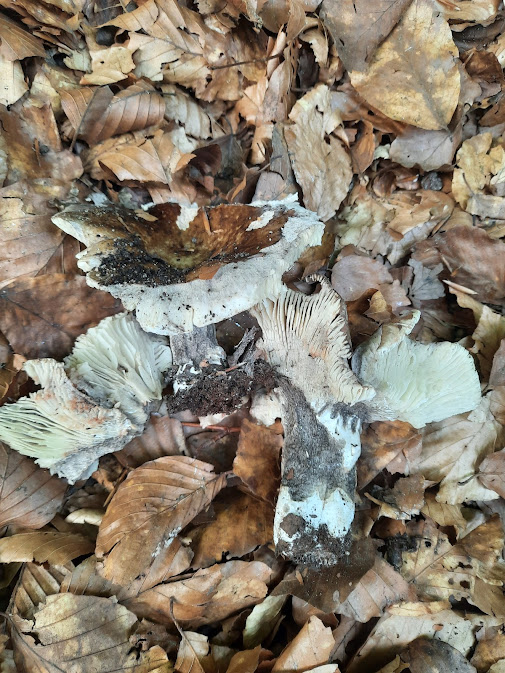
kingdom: Fungi
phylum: Basidiomycota
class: Agaricomycetes
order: Russulales
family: Russulaceae
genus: Russula
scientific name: Russula
